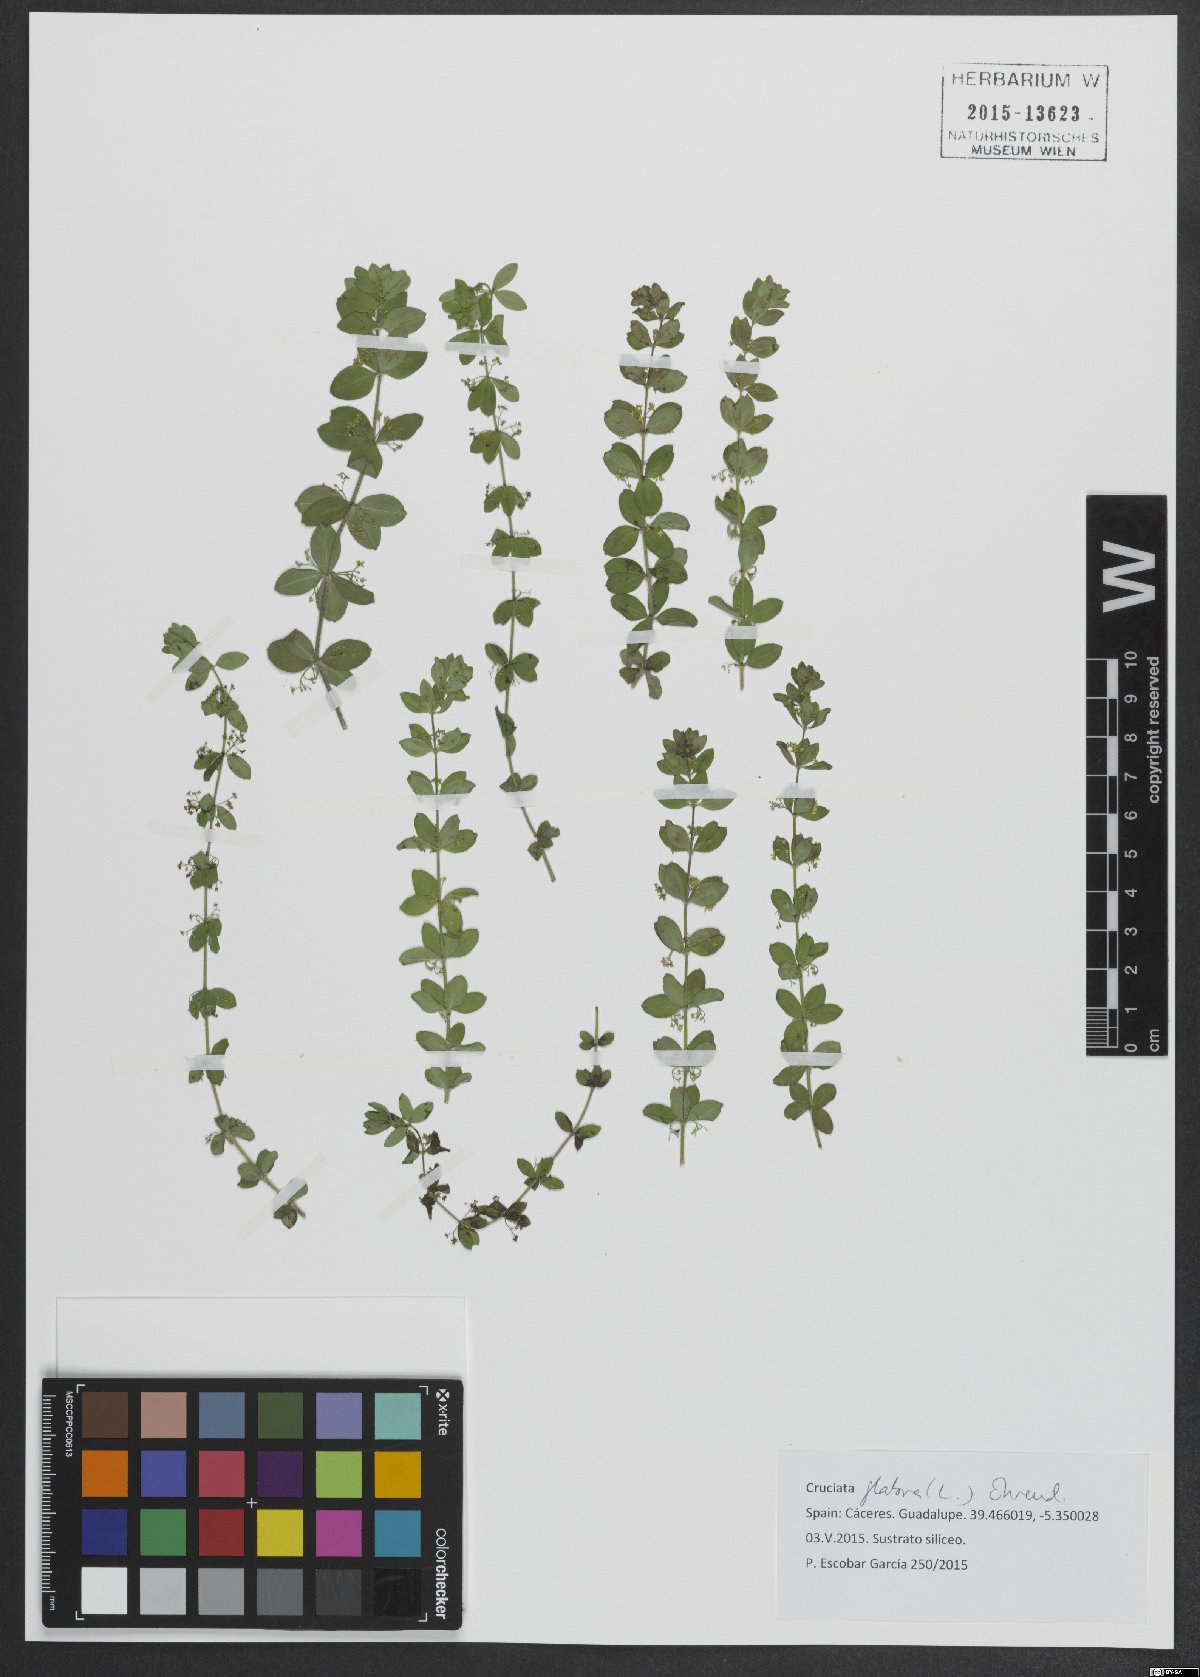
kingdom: Plantae
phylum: Tracheophyta
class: Magnoliopsida
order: Gentianales
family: Rubiaceae
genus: Cruciata
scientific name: Cruciata glabra
